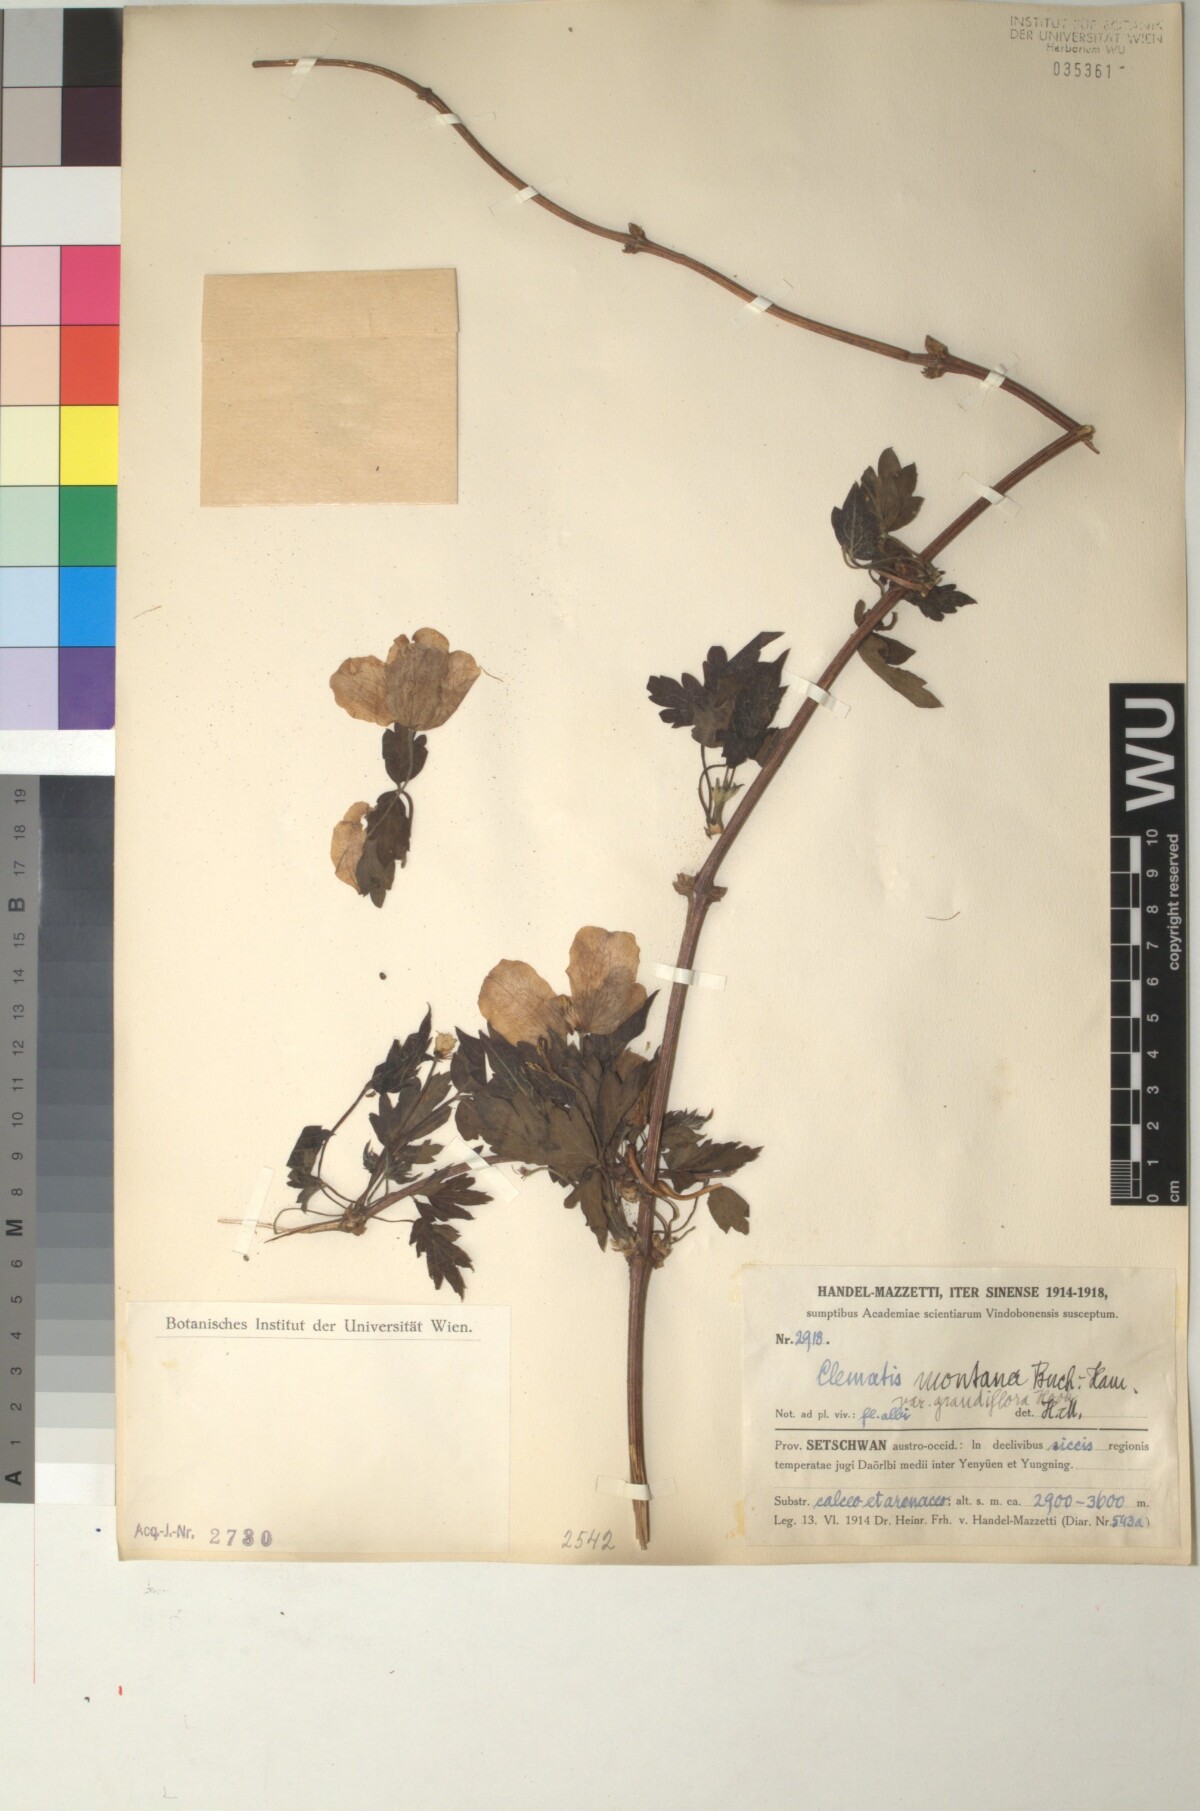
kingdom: Plantae
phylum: Tracheophyta
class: Magnoliopsida
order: Ranunculales
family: Ranunculaceae
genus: Clematis
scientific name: Clematis montana
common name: Himalayan clematis
